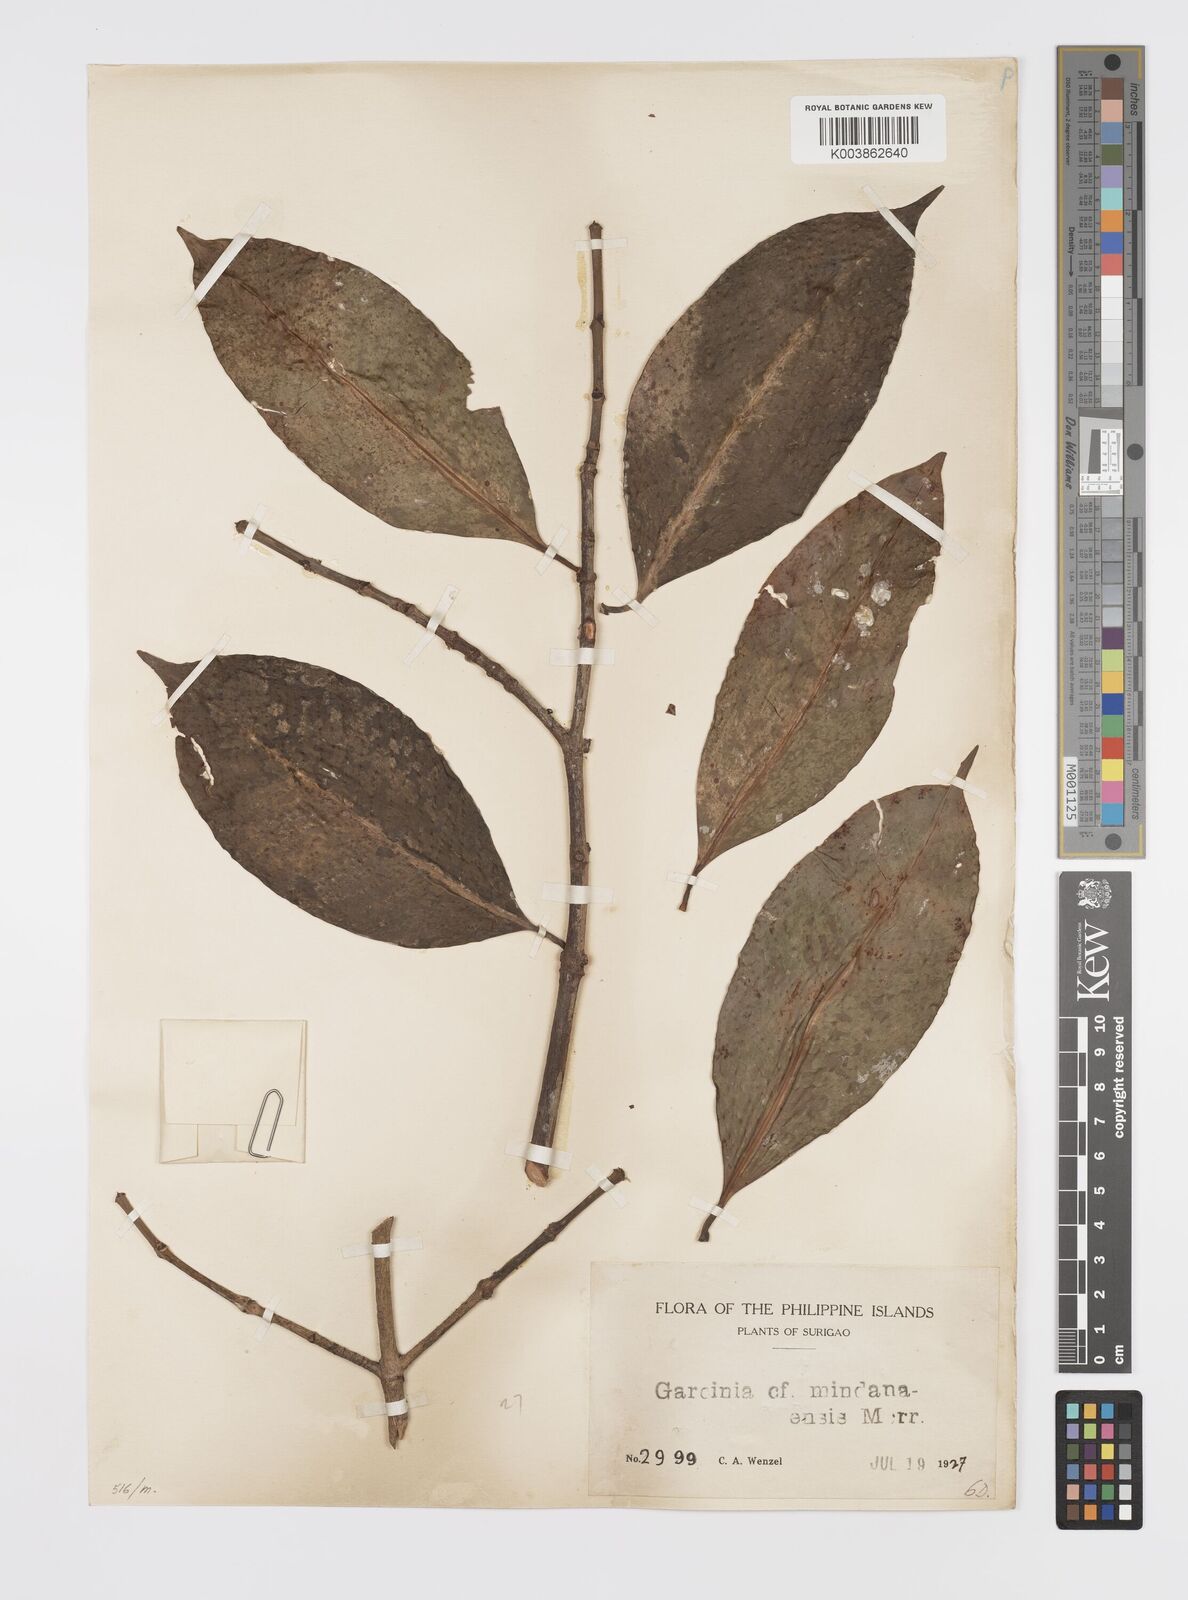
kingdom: Plantae
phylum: Tracheophyta
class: Magnoliopsida
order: Malpighiales
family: Clusiaceae
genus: Garcinia
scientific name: Garcinia mindanaensis
